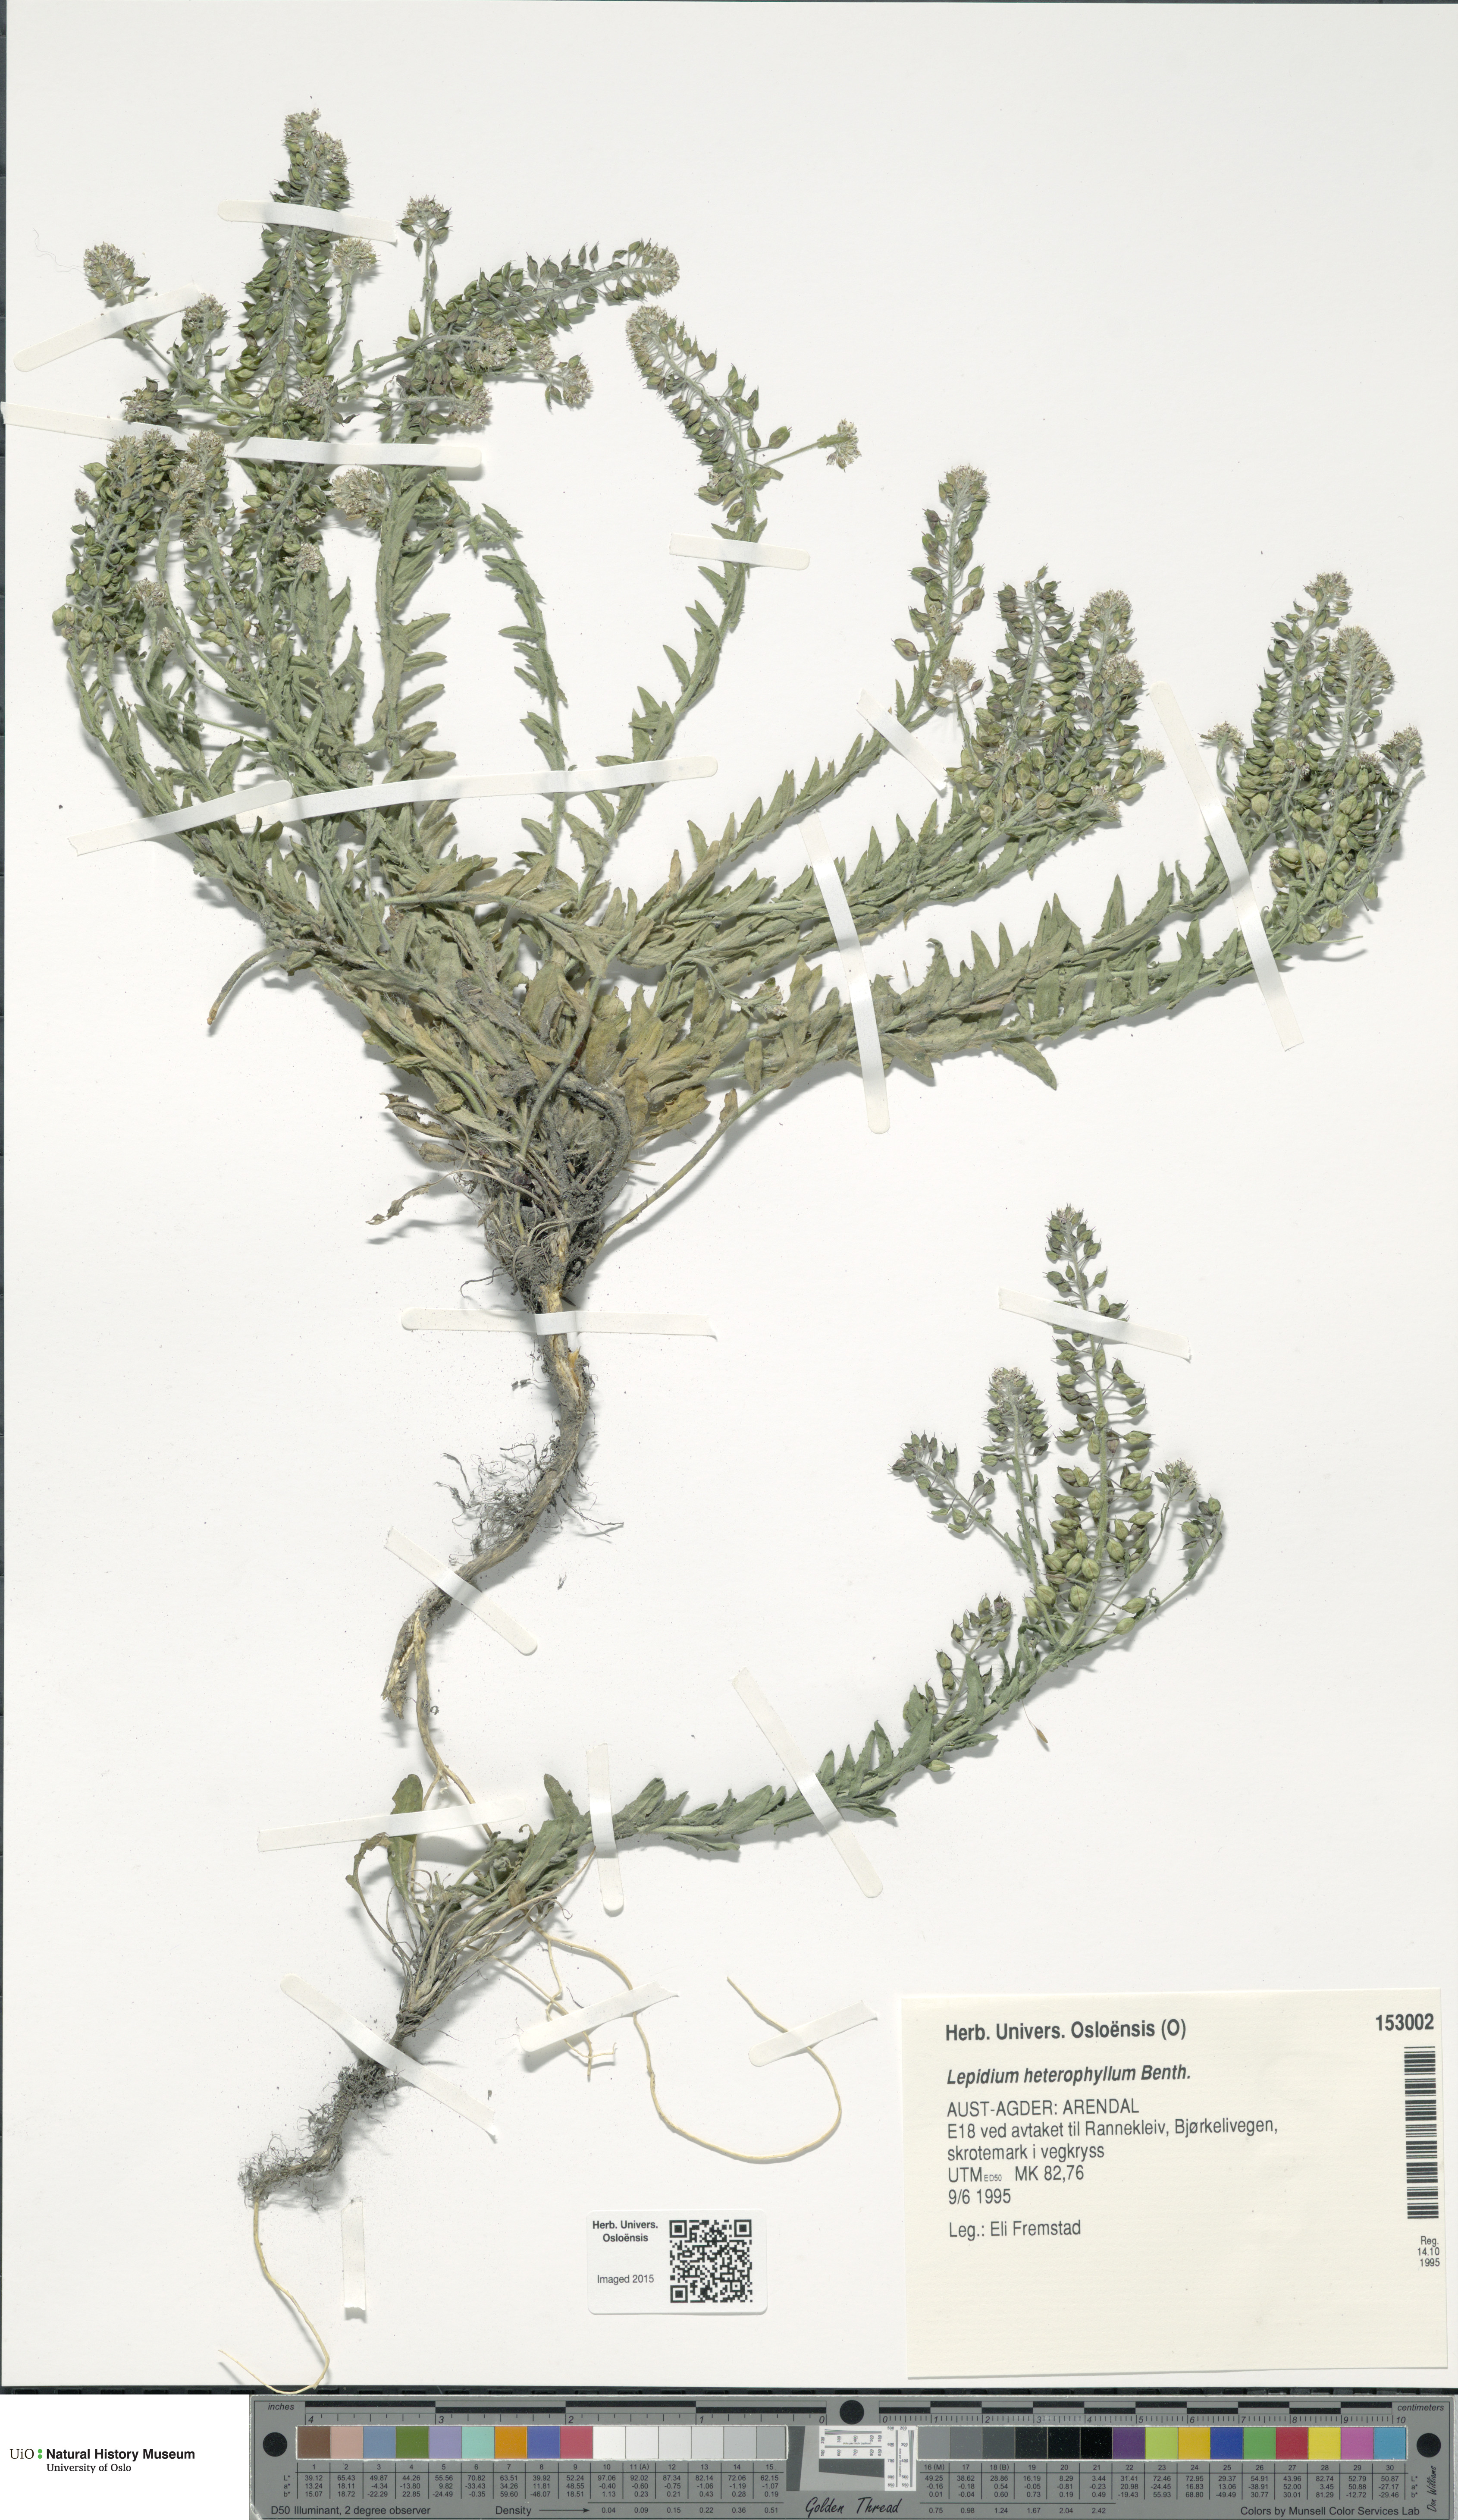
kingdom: Plantae
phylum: Tracheophyta
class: Magnoliopsida
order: Brassicales
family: Brassicaceae
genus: Lepidium
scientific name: Lepidium heterophyllum
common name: Smith's pepperwort
